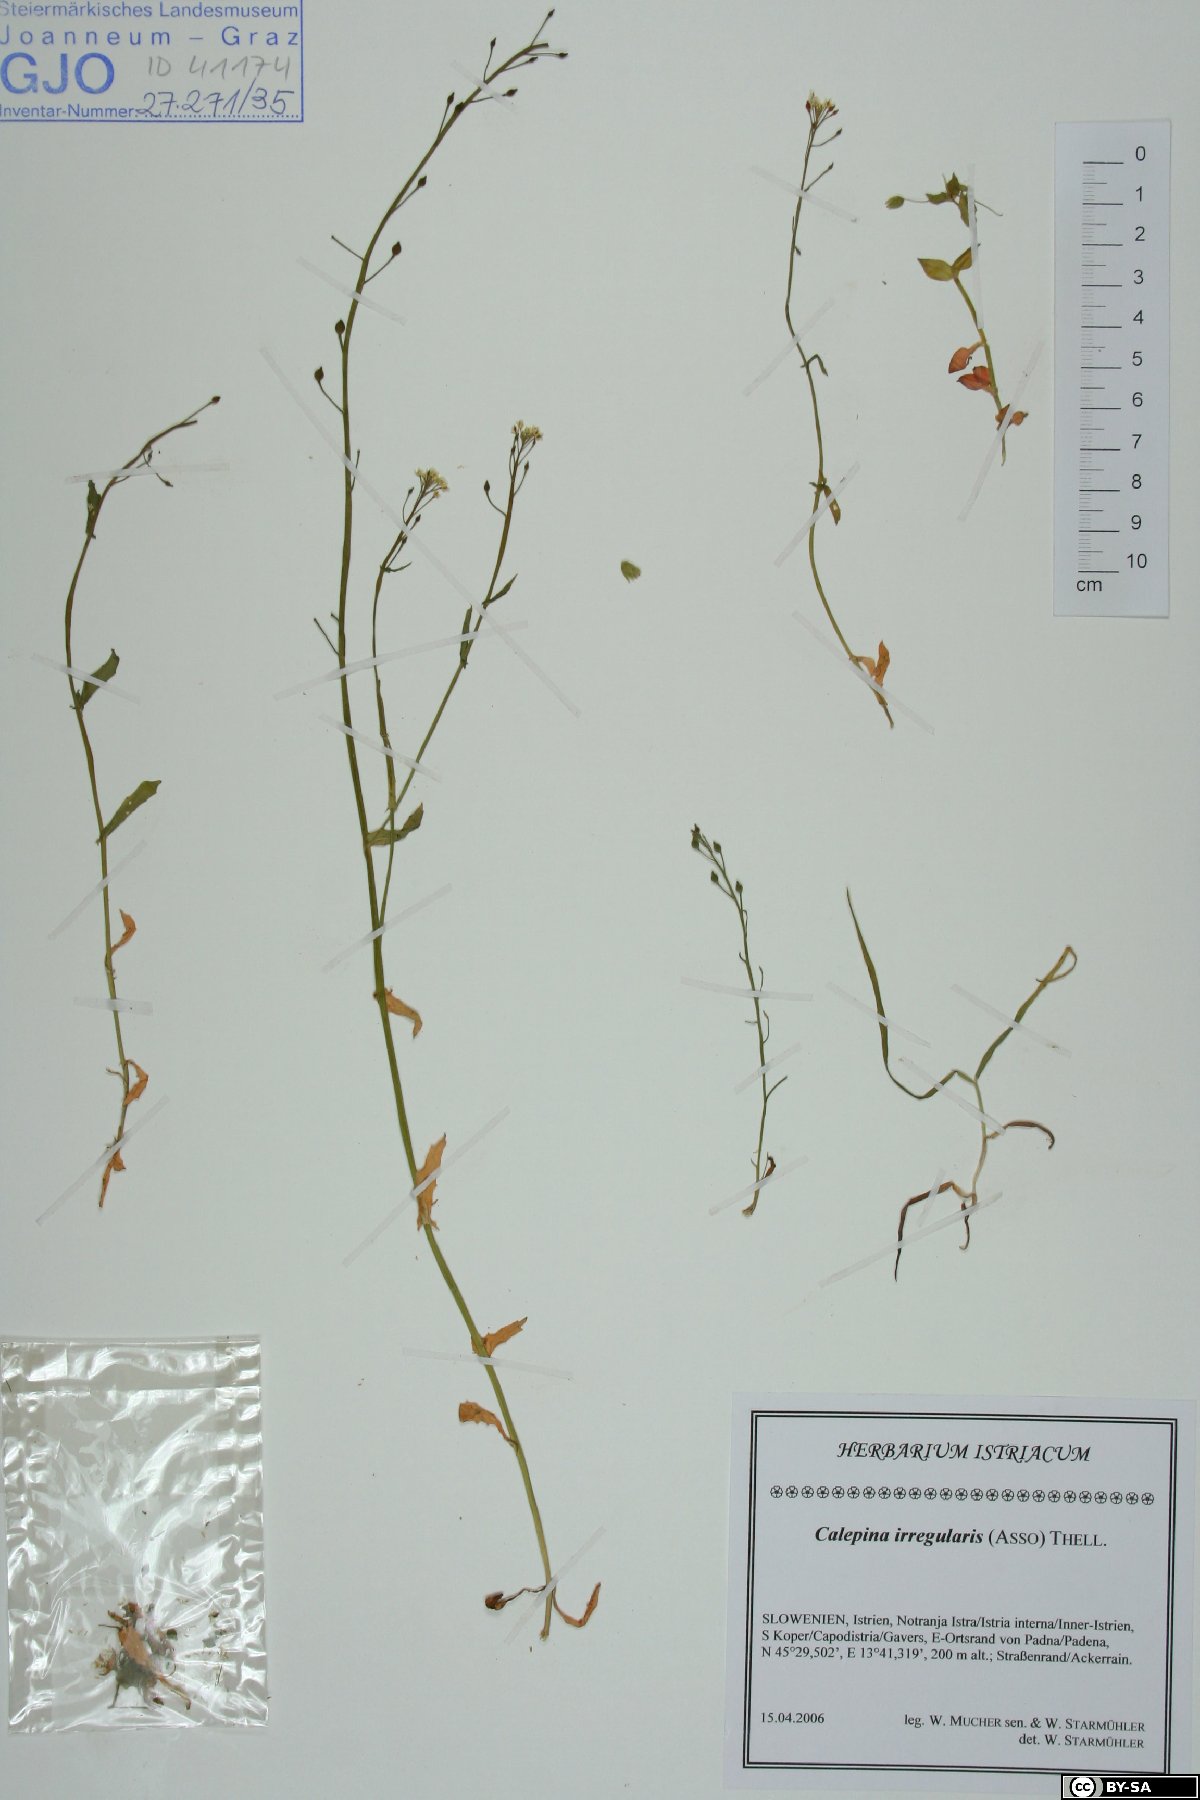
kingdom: Plantae
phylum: Tracheophyta
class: Magnoliopsida
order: Brassicales
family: Brassicaceae
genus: Calepina
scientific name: Calepina irregularis
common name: White ballmustard
